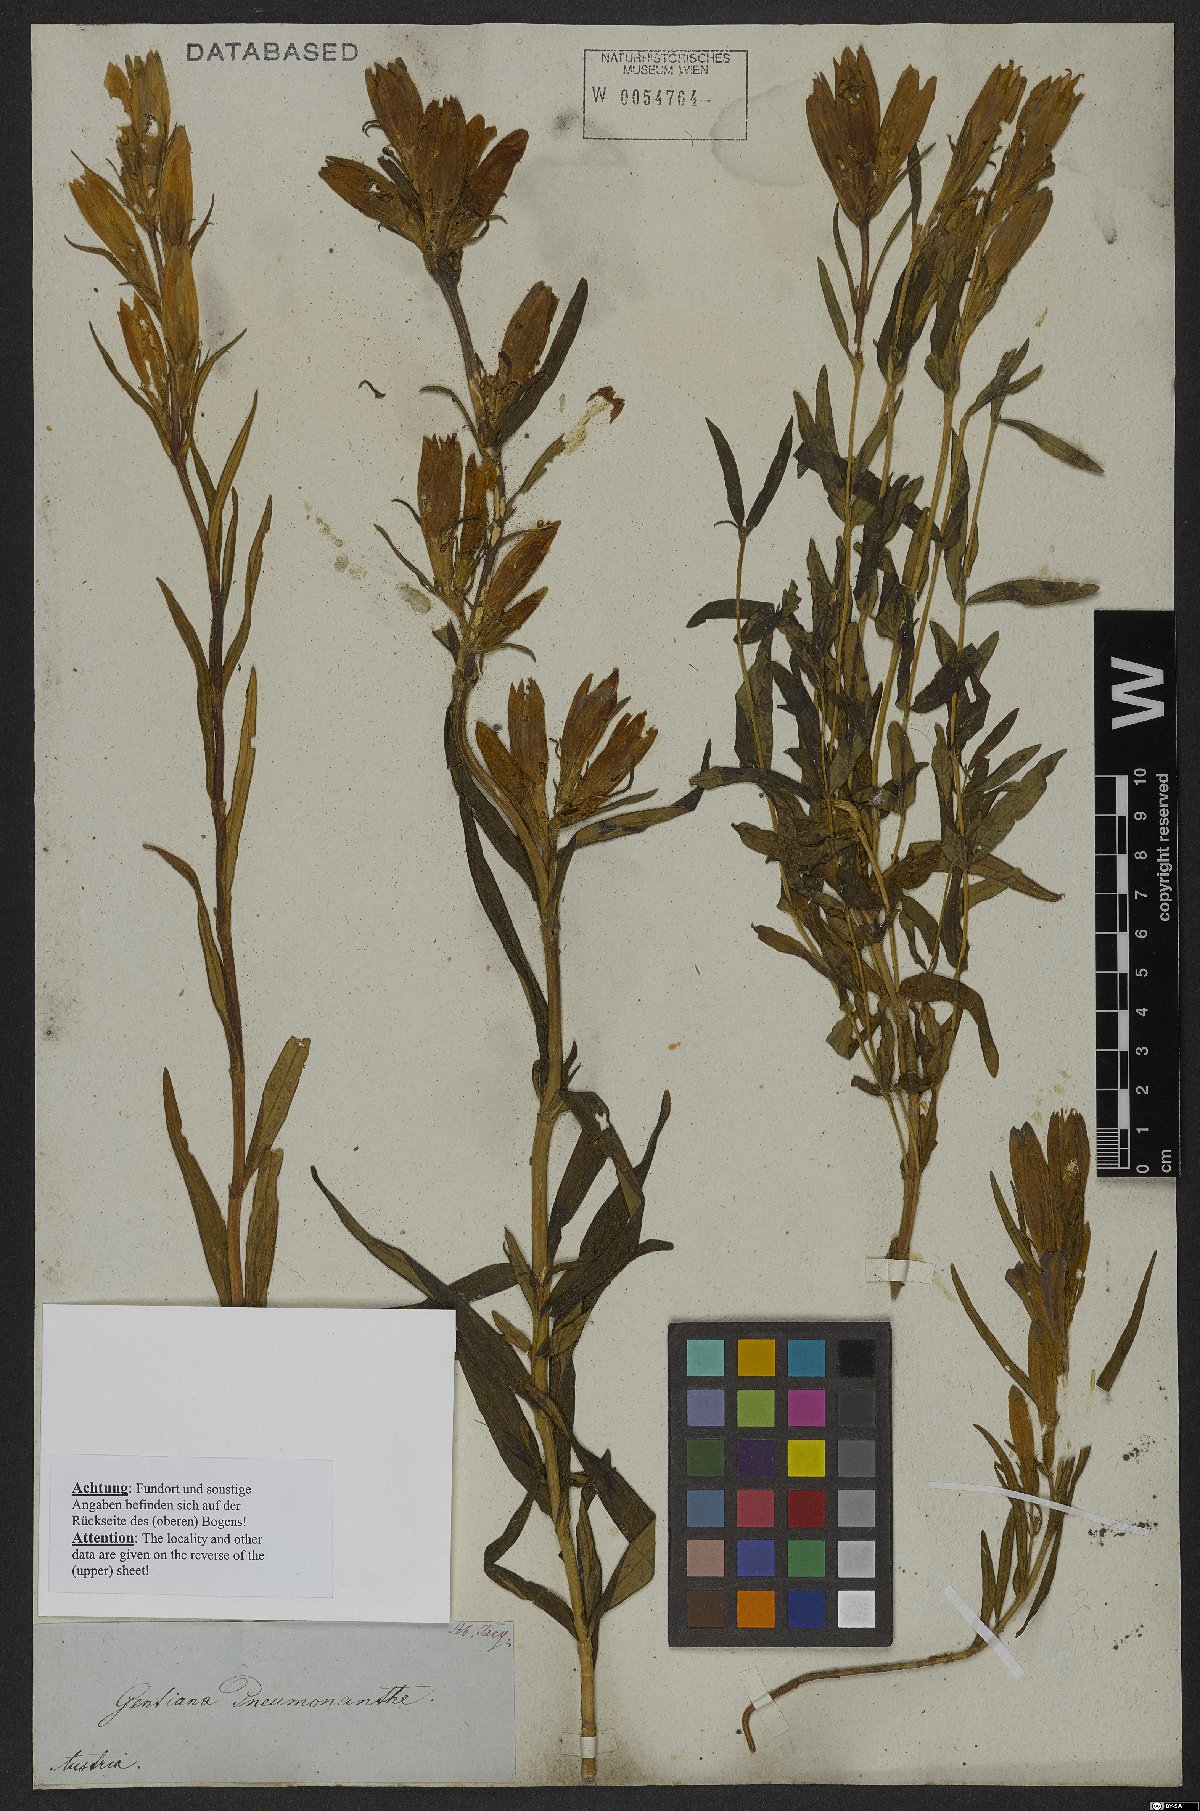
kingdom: Plantae
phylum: Tracheophyta
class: Magnoliopsida
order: Gentianales
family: Gentianaceae
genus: Gentiana
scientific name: Gentiana pneumonanthe
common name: Marsh gentian
